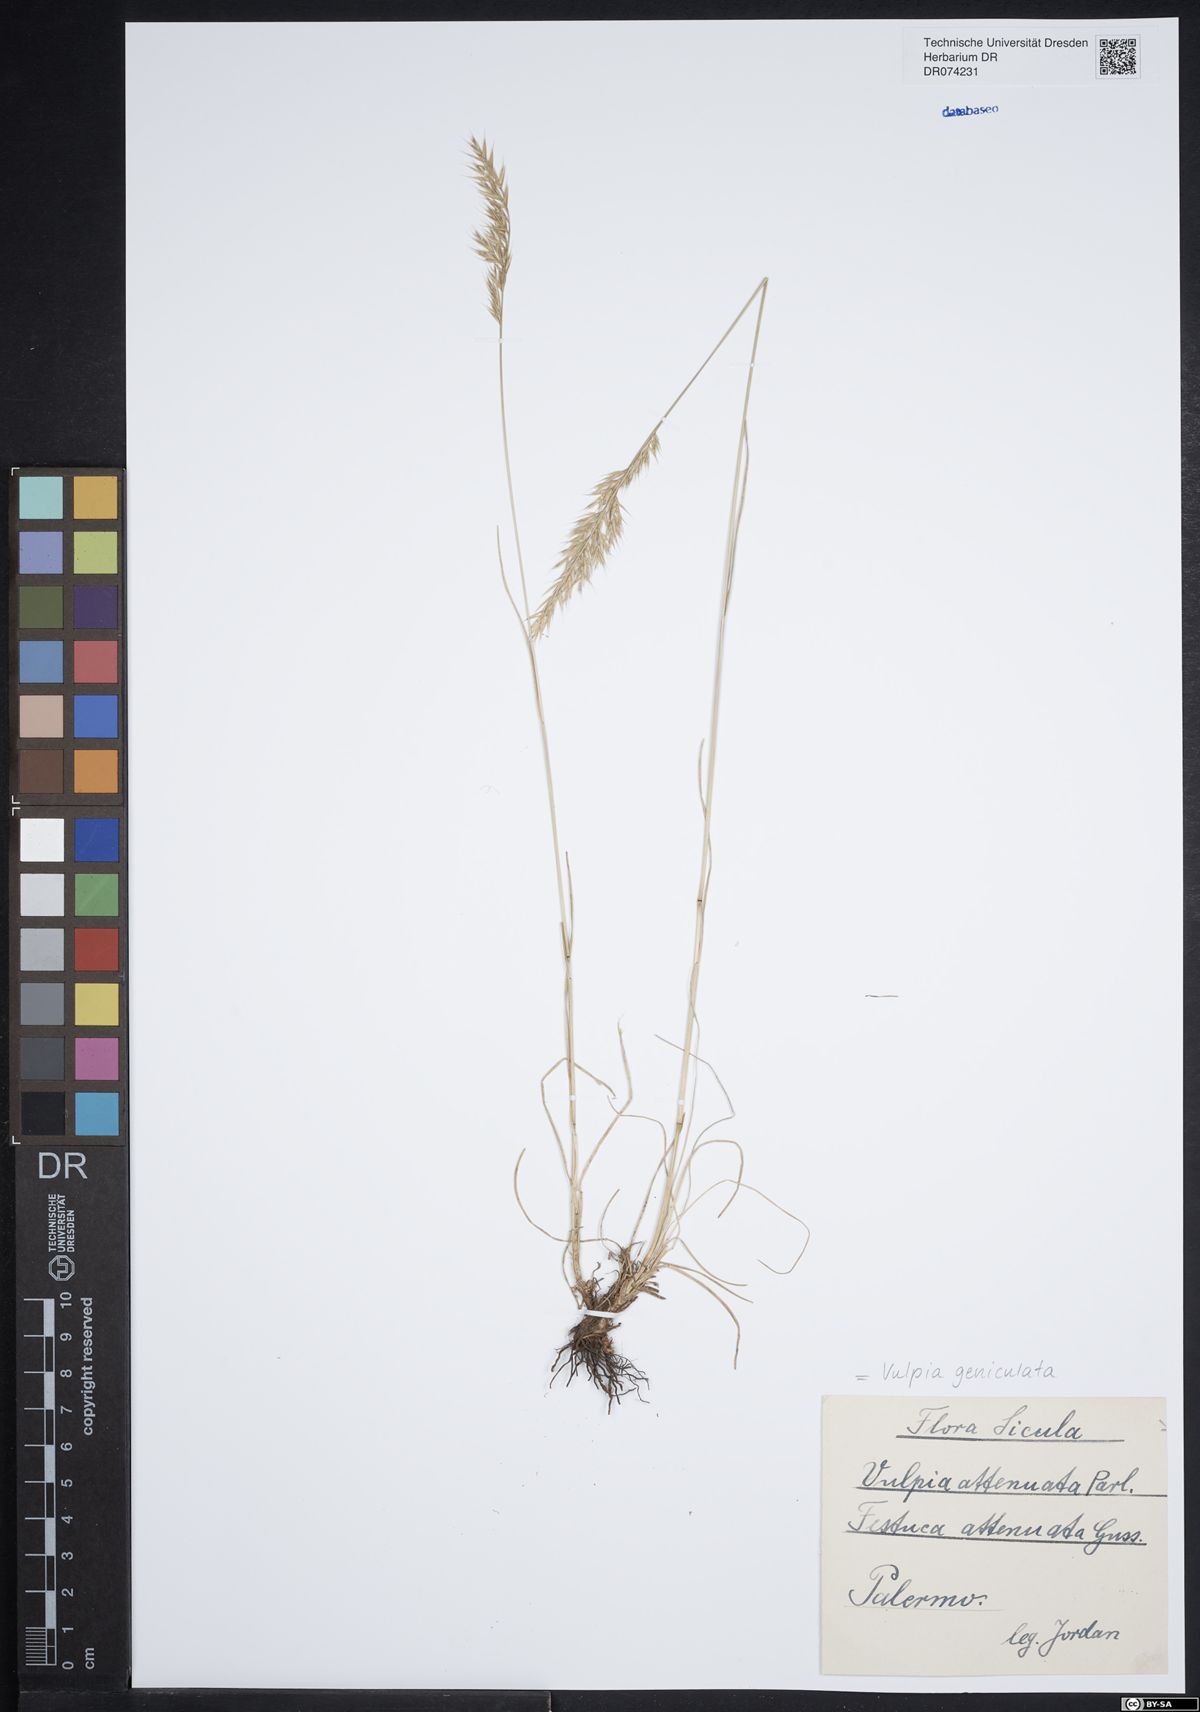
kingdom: Plantae
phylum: Tracheophyta
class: Liliopsida
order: Poales
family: Poaceae
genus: Festuca
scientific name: Festuca geniculata
